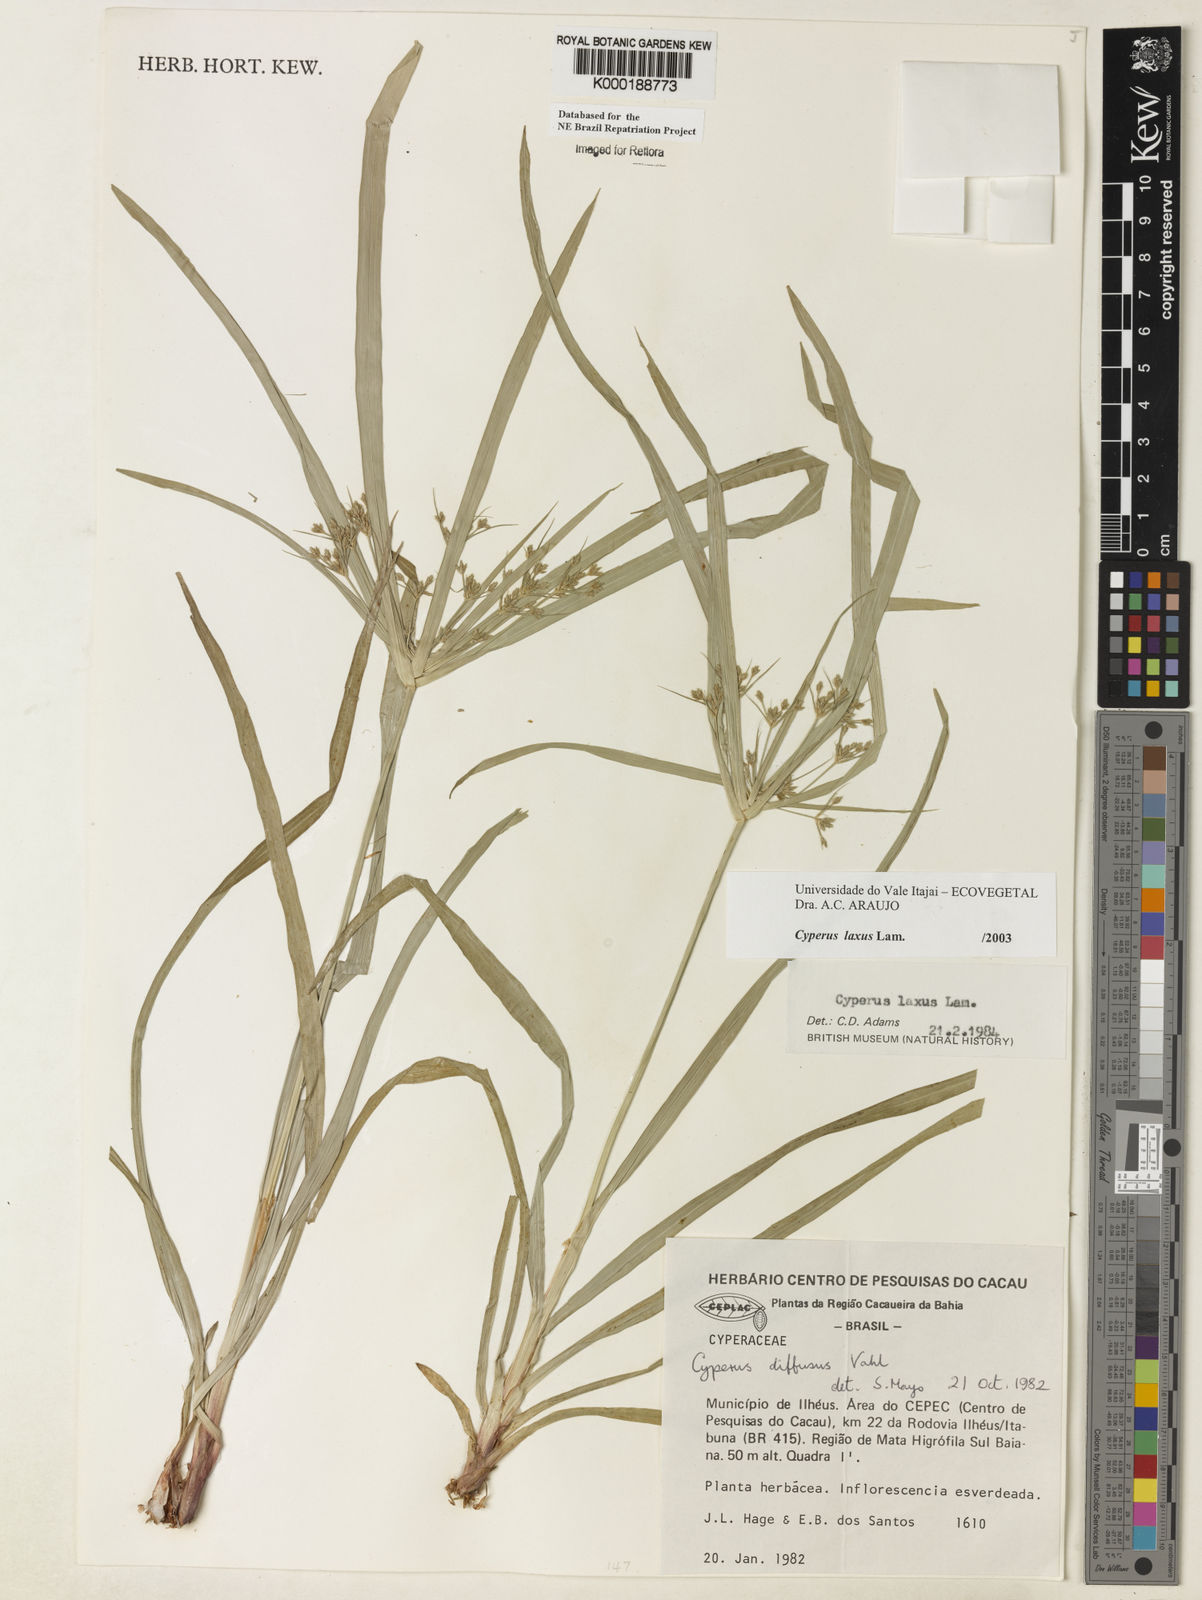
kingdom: Plantae
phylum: Tracheophyta
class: Liliopsida
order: Poales
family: Cyperaceae
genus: Cyperus
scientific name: Cyperus
